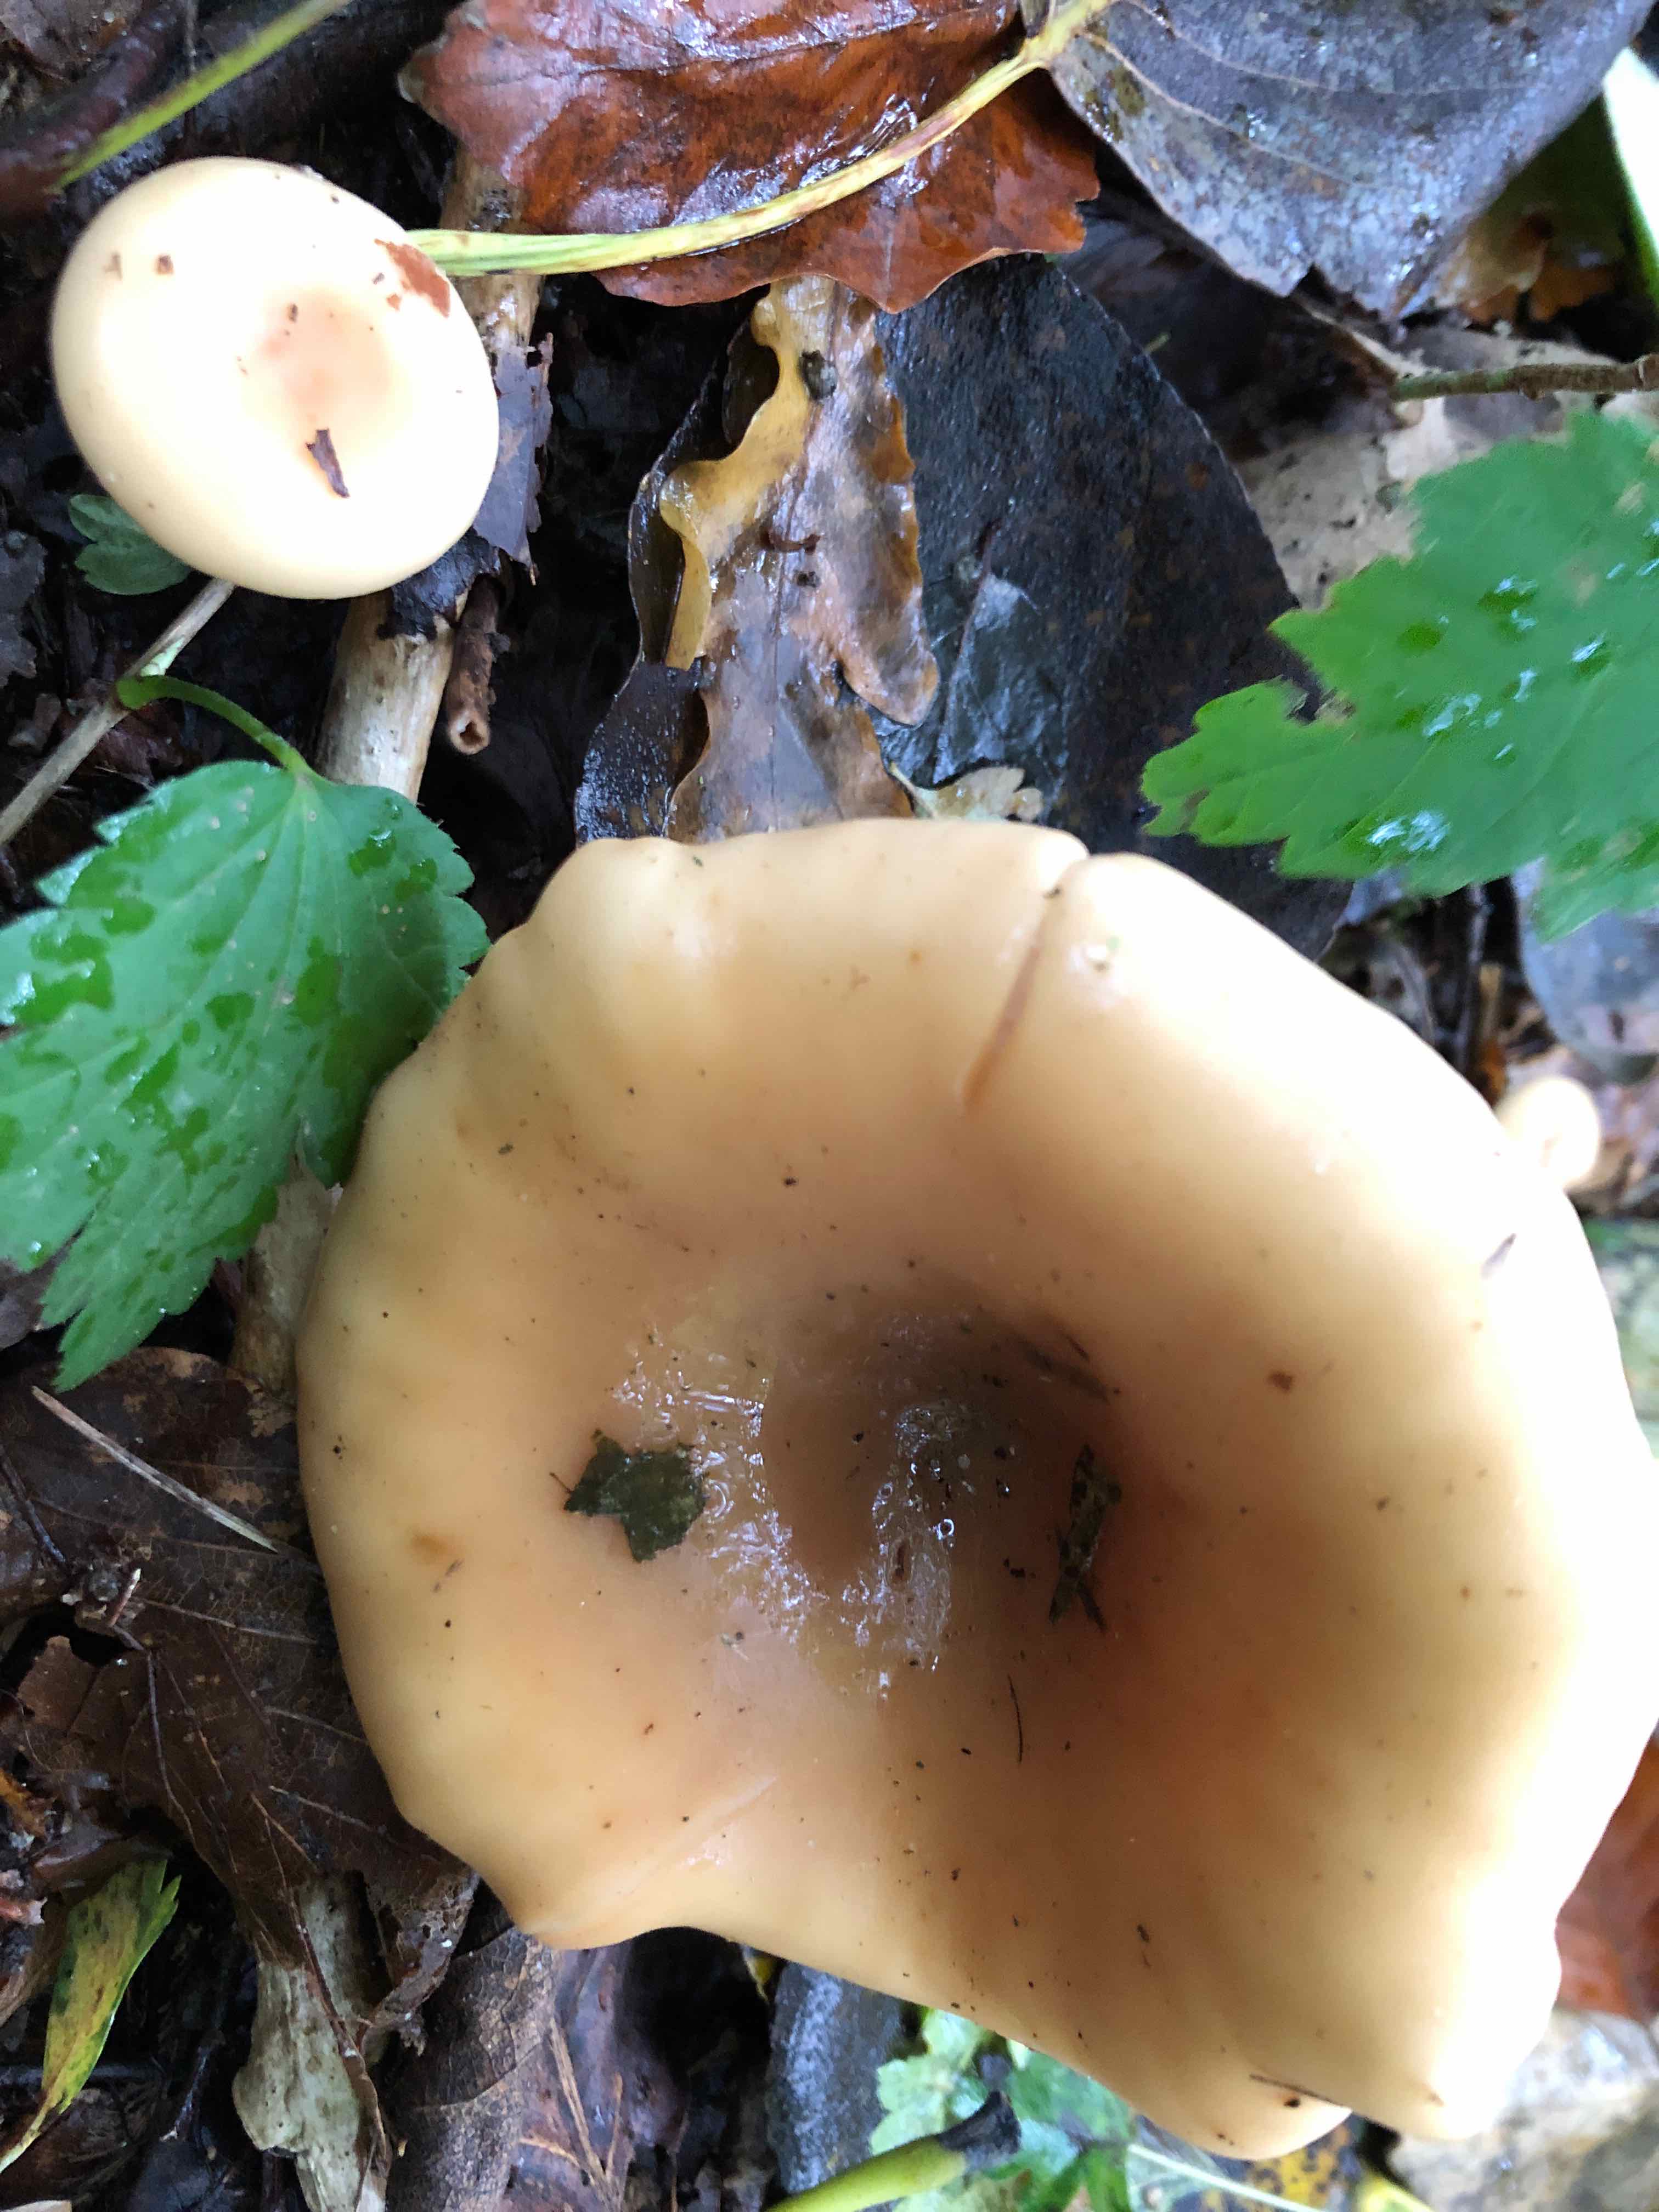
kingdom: Fungi
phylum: Basidiomycota
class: Agaricomycetes
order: Agaricales
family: Tricholomataceae
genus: Paralepista
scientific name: Paralepista flaccida
